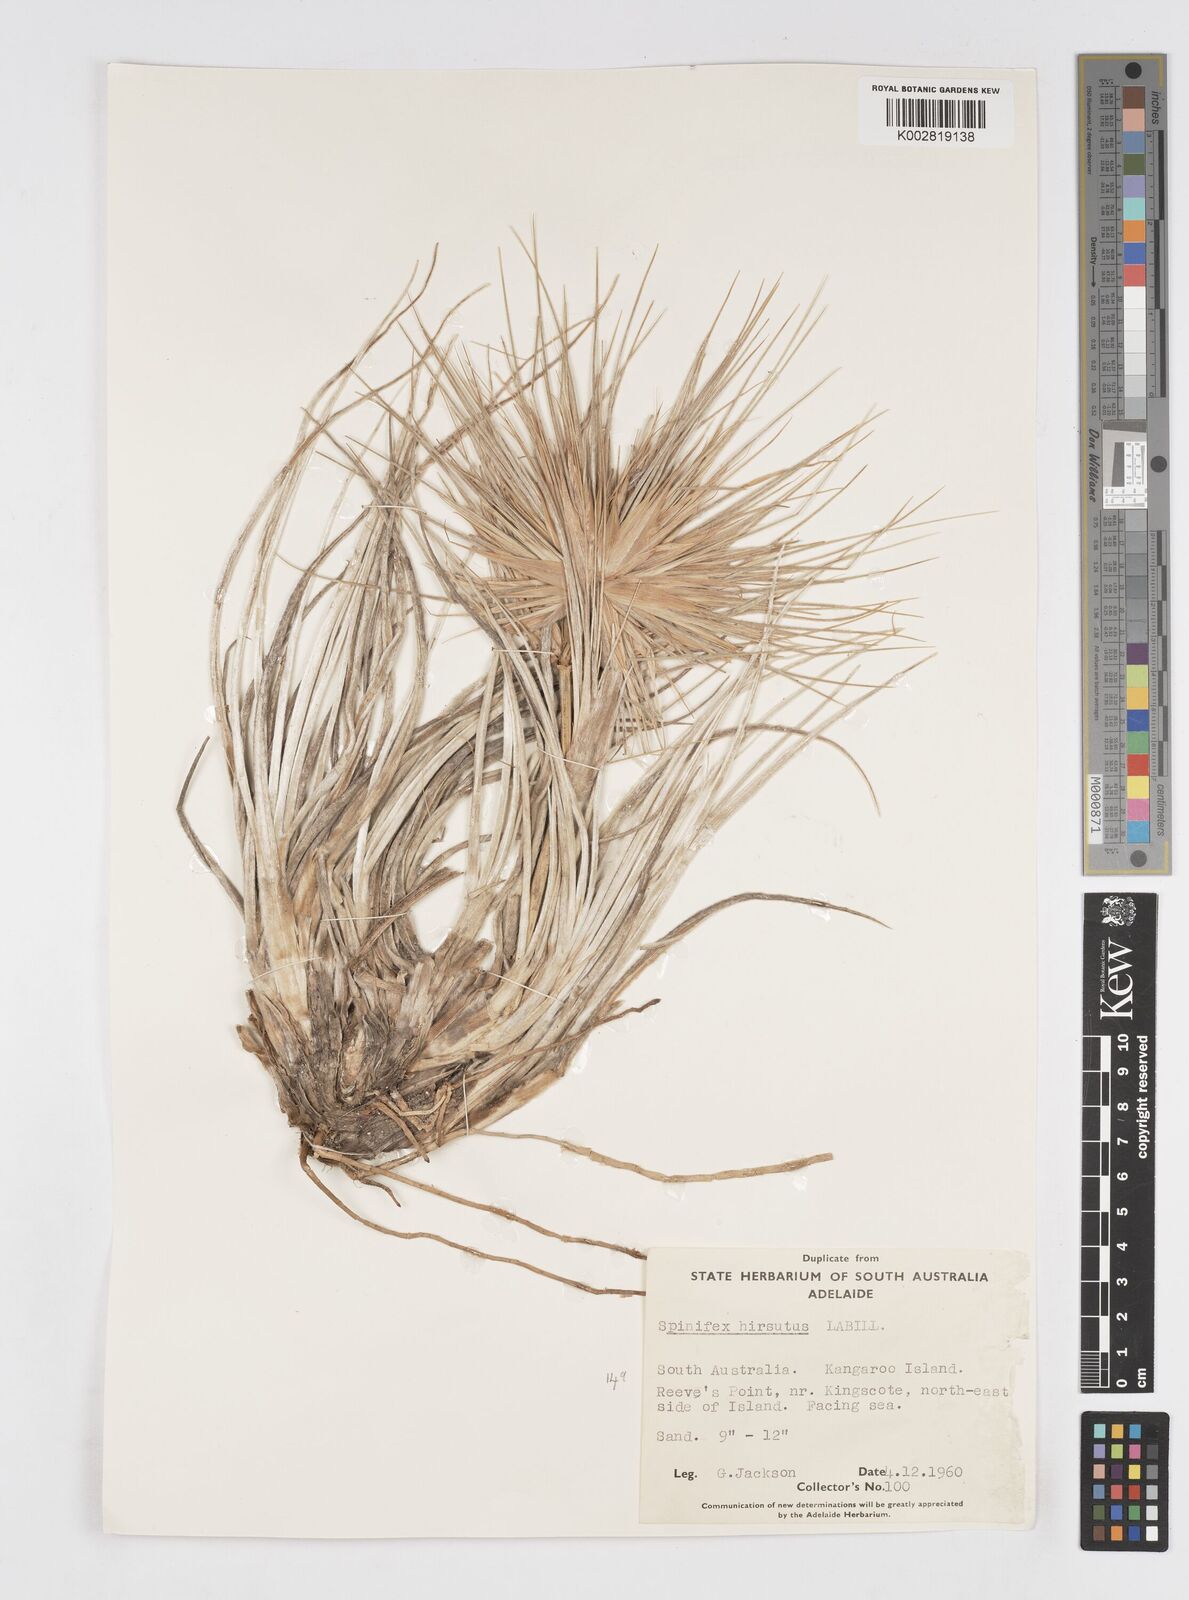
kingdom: Plantae
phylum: Tracheophyta
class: Liliopsida
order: Poales
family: Poaceae
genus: Spinifex
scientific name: Spinifex hirsutus
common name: Hairy spinifex
